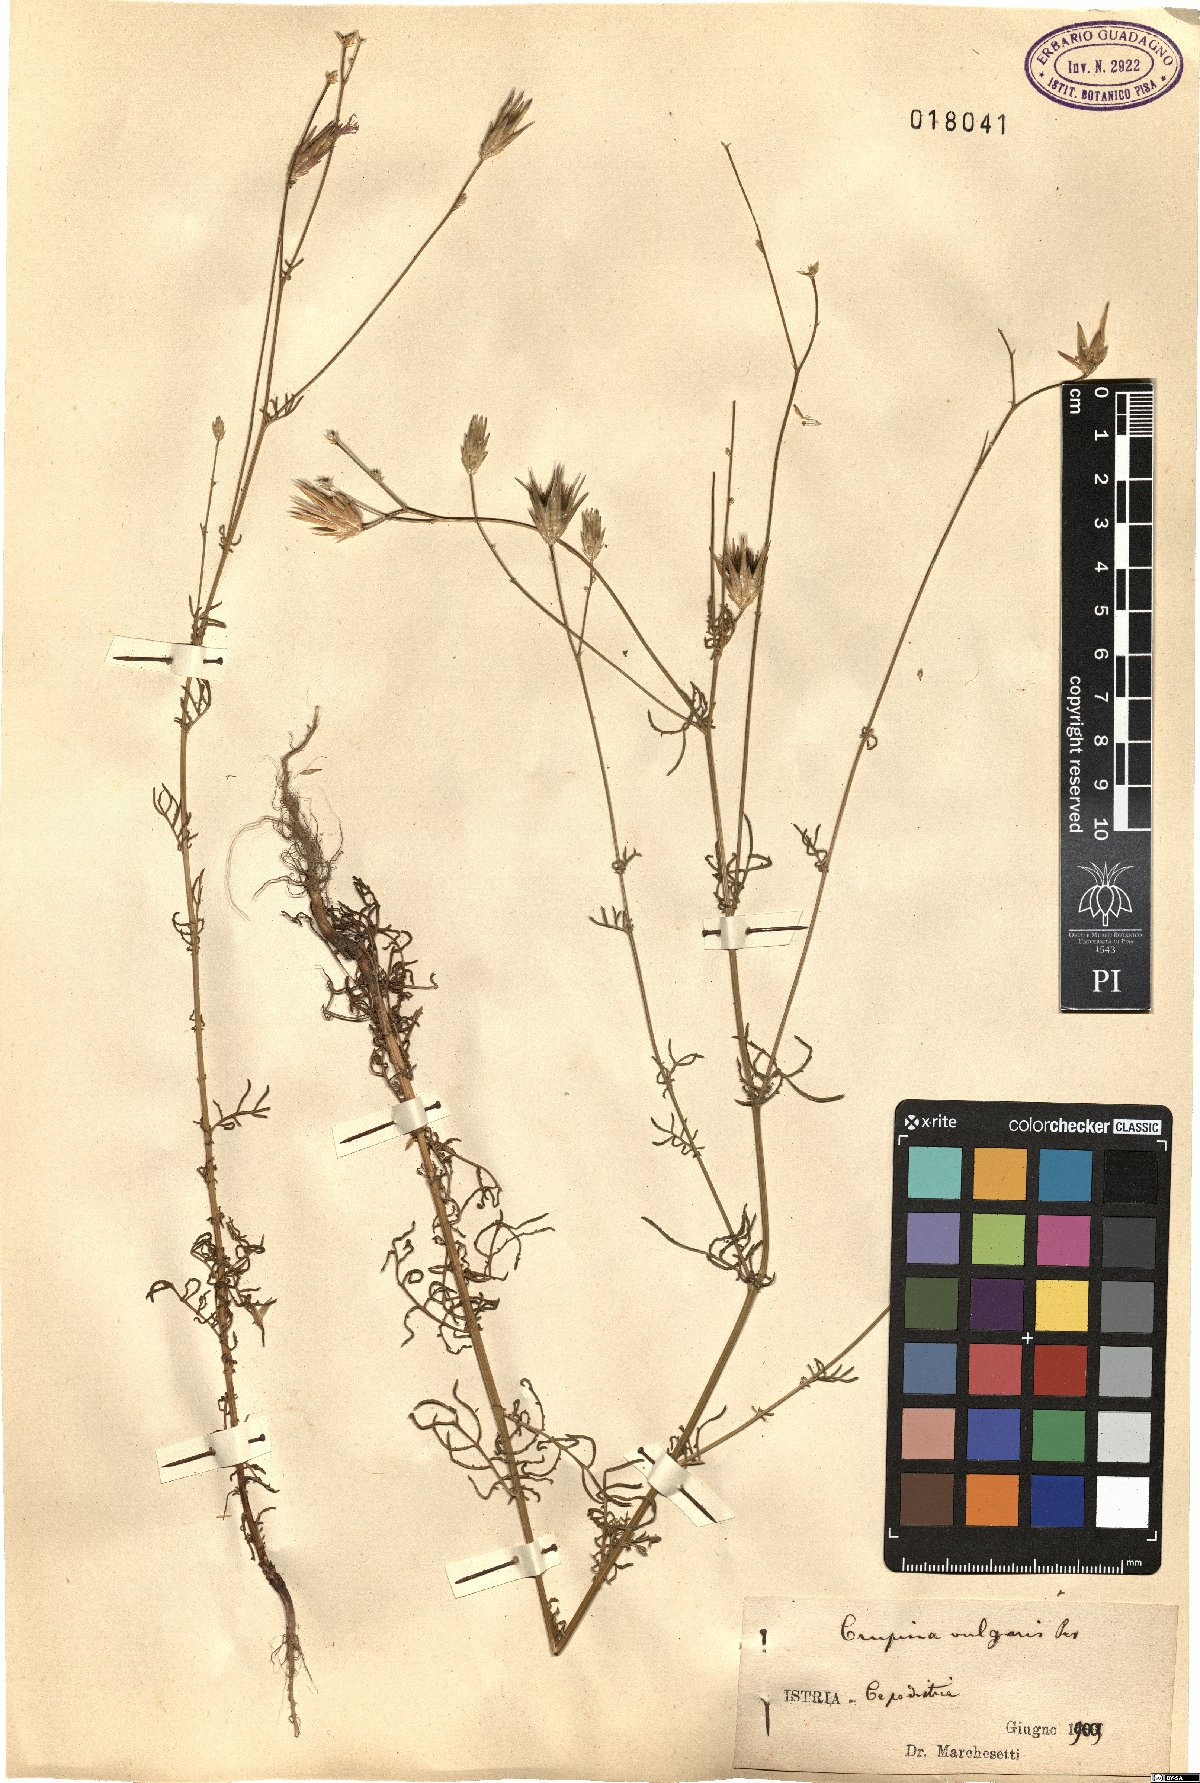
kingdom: Plantae
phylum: Tracheophyta
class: Magnoliopsida
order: Asterales
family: Asteraceae
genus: Crupina
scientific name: Crupina vulgaris
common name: Common crupina
